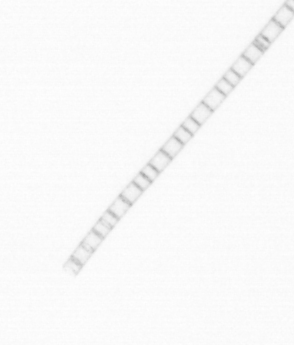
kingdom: Chromista
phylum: Ochrophyta
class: Bacillariophyceae
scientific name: Bacillariophyceae
